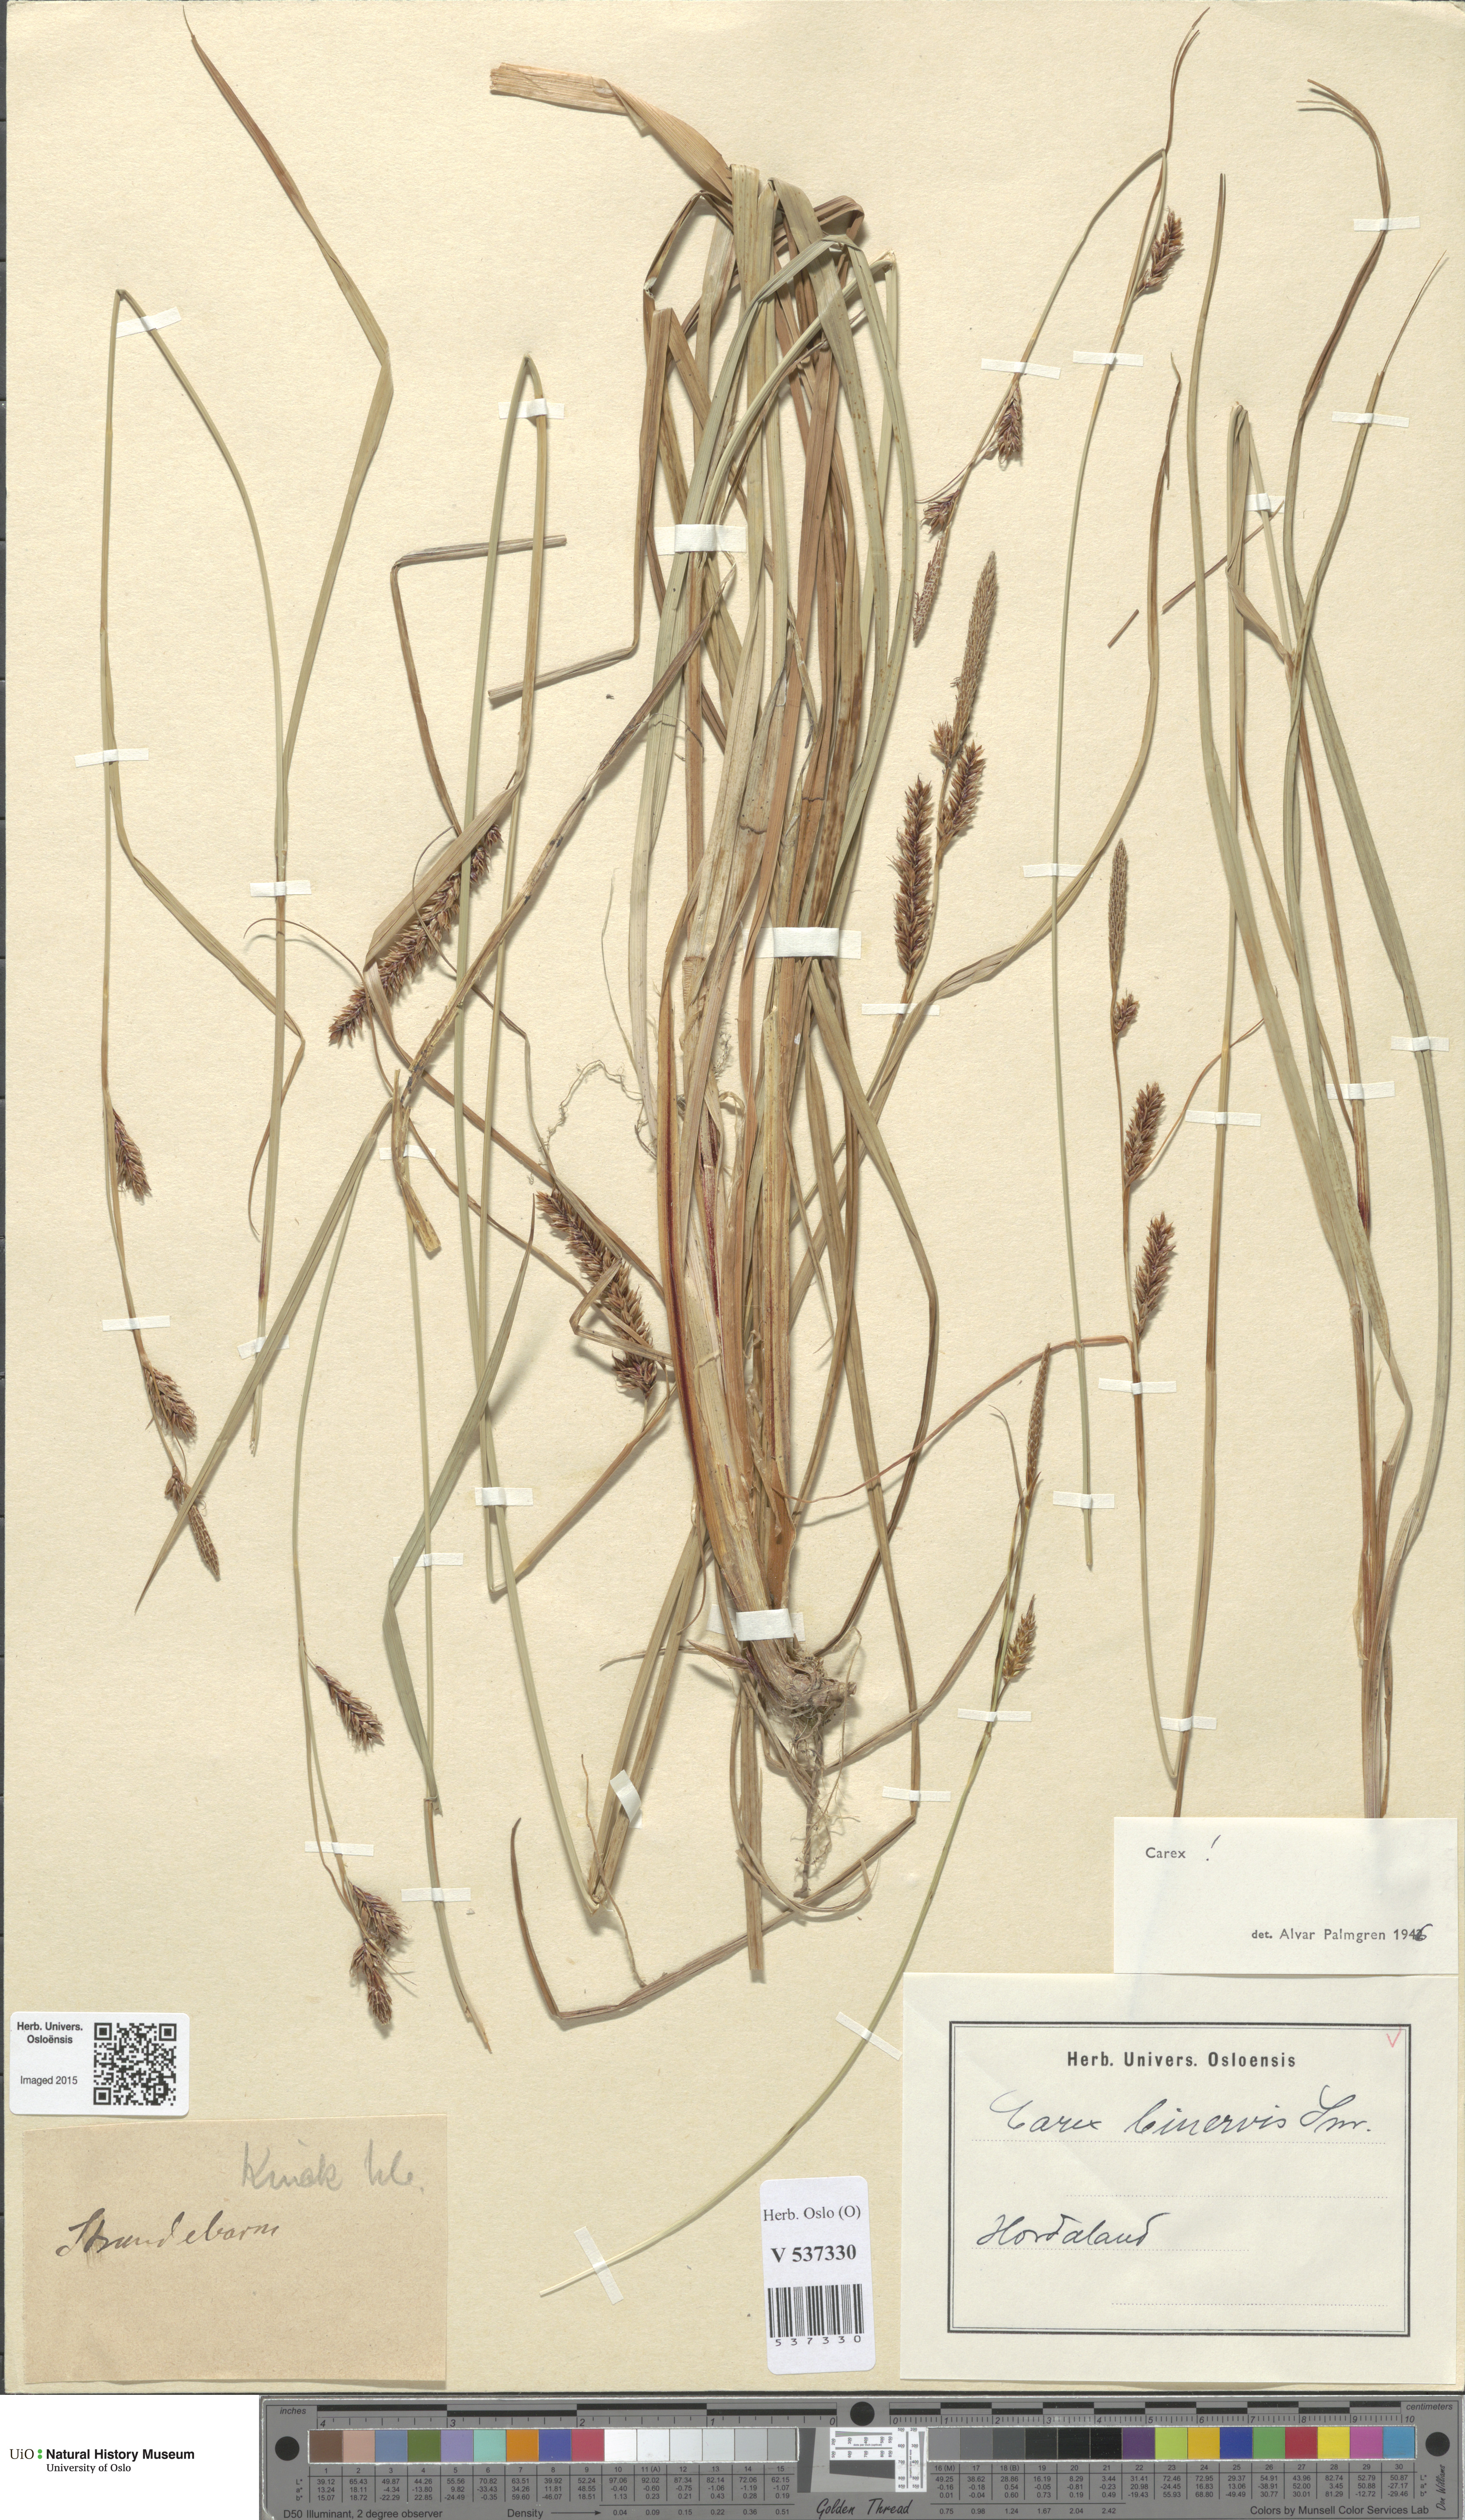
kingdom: Plantae
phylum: Tracheophyta
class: Liliopsida
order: Poales
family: Cyperaceae
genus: Carex
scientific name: Carex binervis
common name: Green-ribbed sedge
